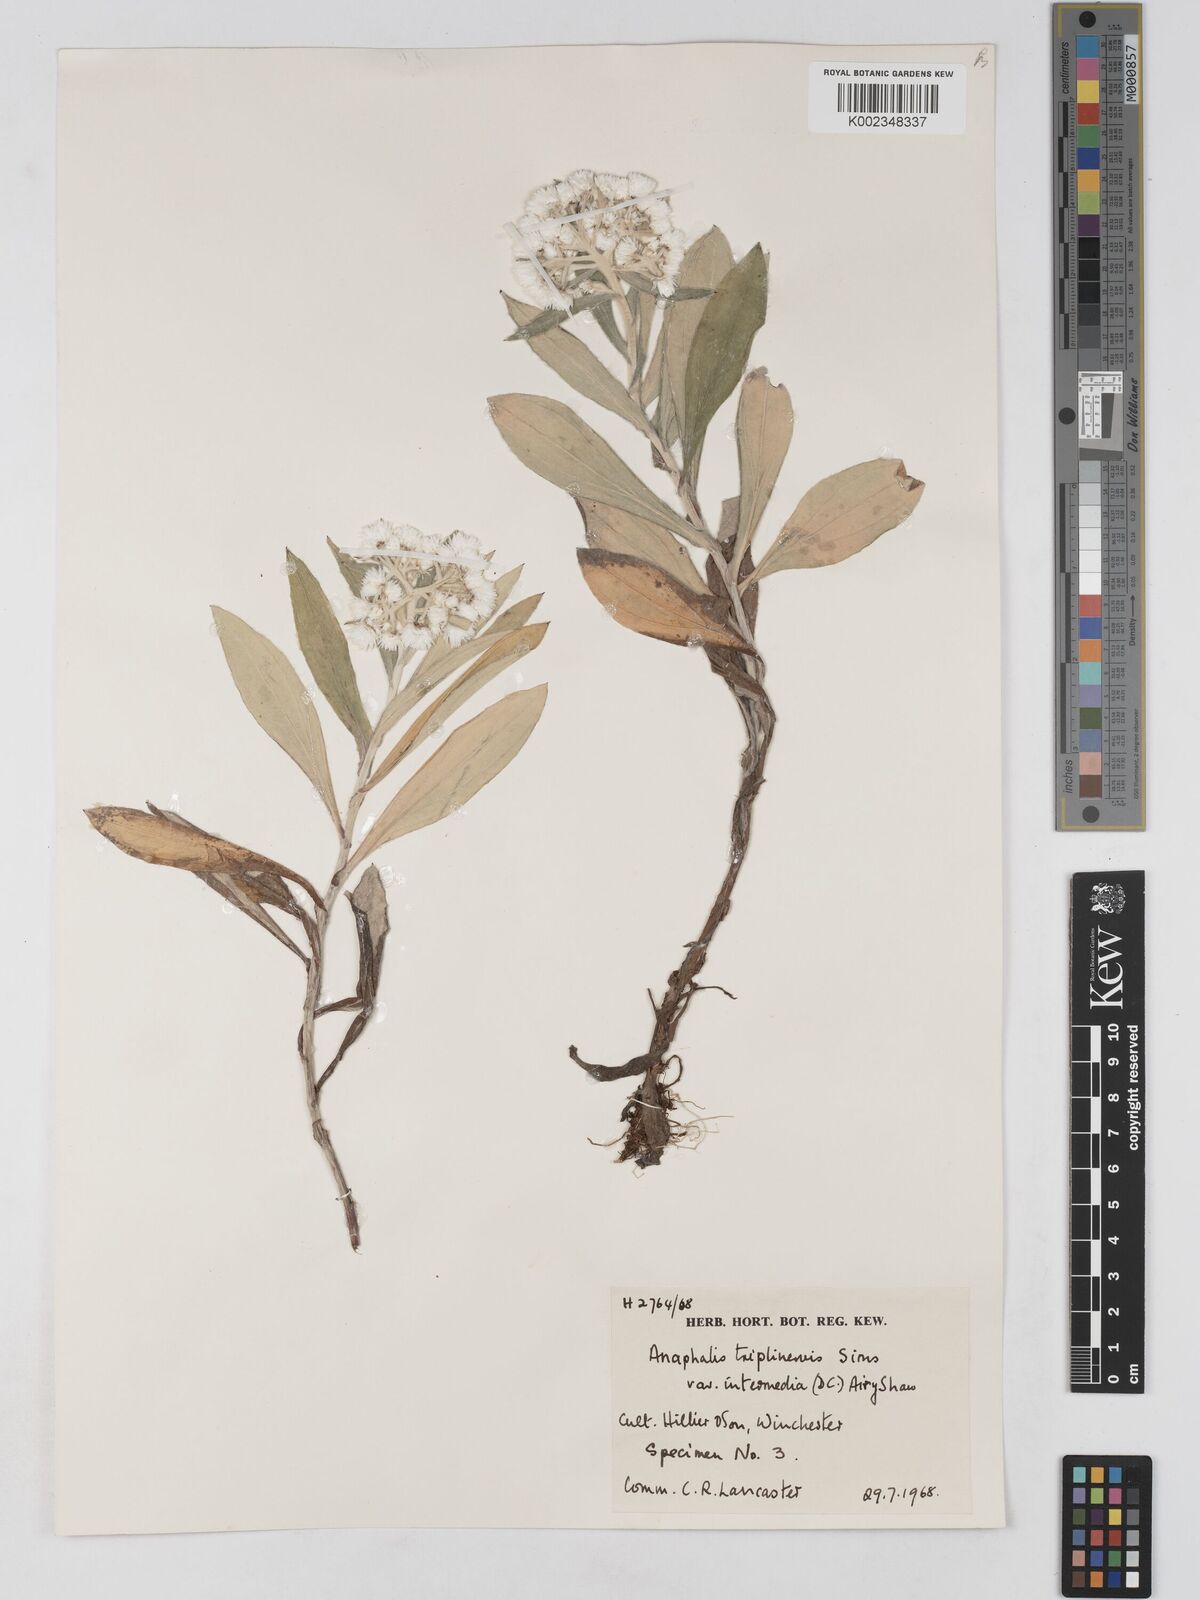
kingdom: Plantae
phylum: Tracheophyta
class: Magnoliopsida
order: Asterales
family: Asteraceae
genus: Anaphalis
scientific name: Anaphalis nepalensis
